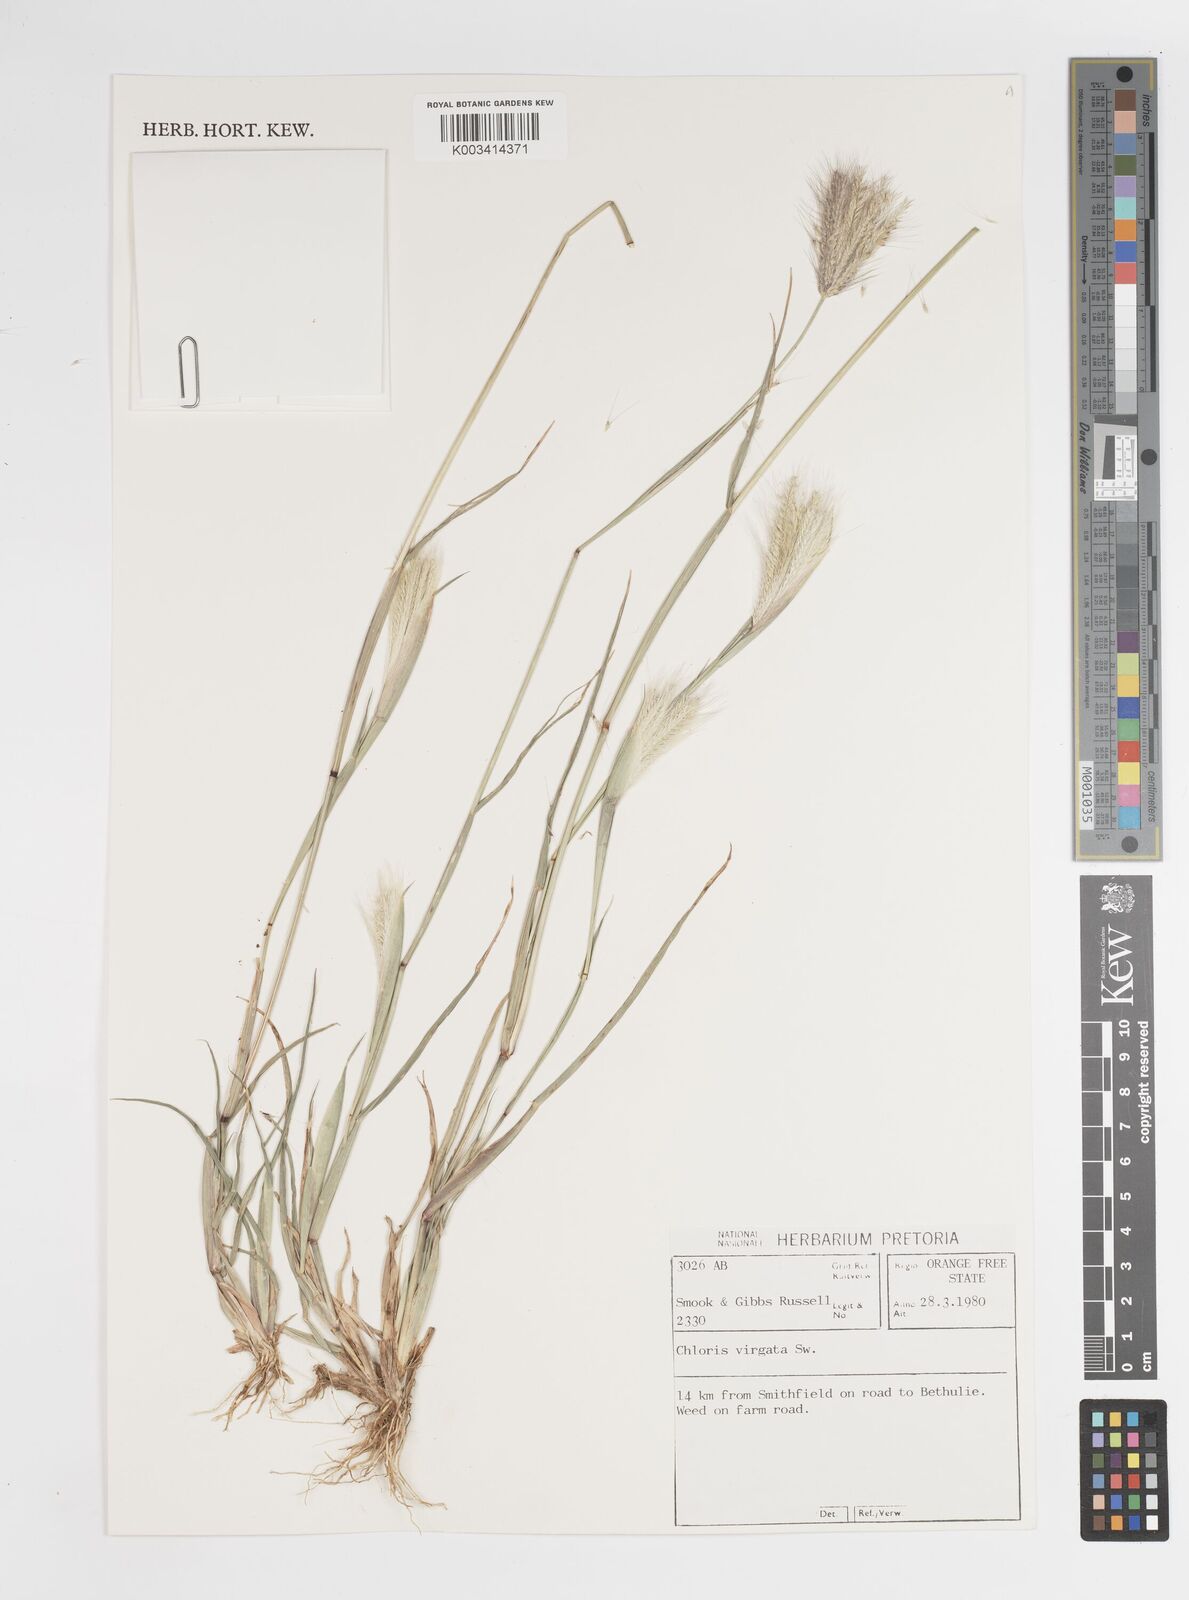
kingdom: Plantae
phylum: Tracheophyta
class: Liliopsida
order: Poales
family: Poaceae
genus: Chloris
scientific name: Chloris virgata
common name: Feathery rhodes-grass
